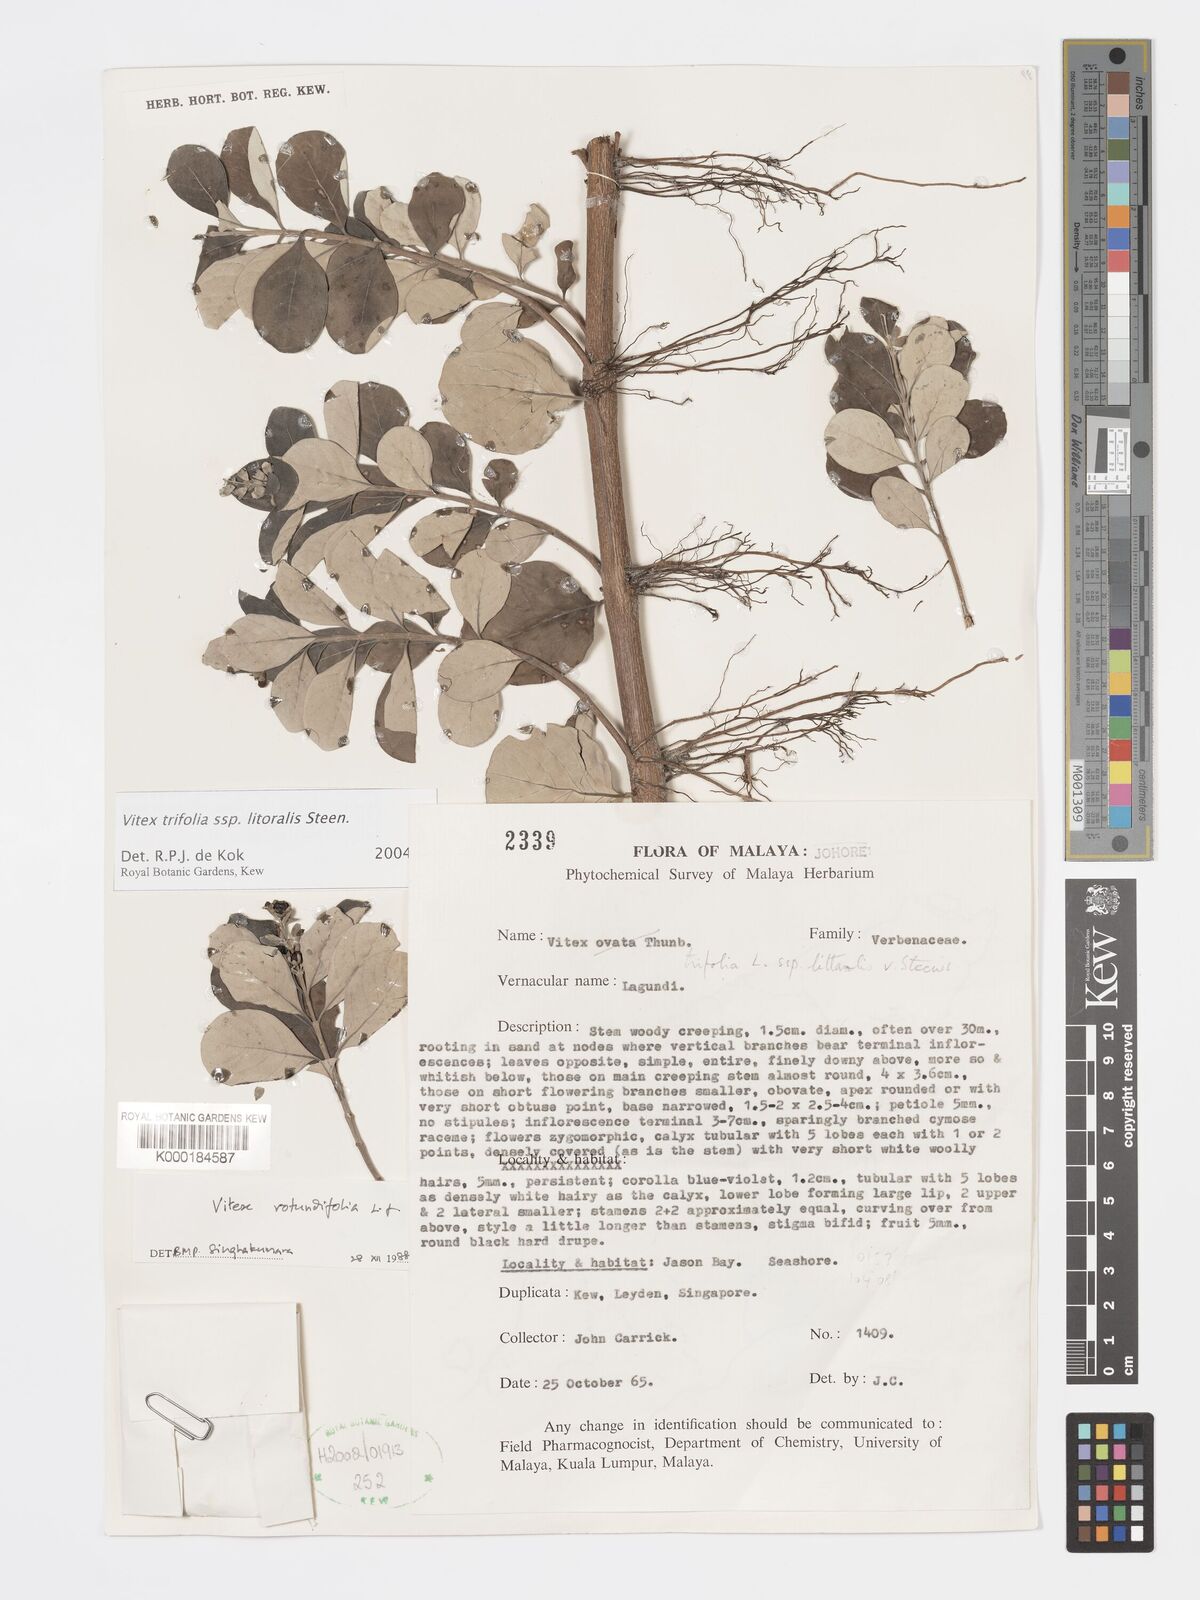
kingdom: Plantae
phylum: Tracheophyta
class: Magnoliopsida
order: Lamiales
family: Lamiaceae
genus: Vitex
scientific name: Vitex rotundifolia
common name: Beach vitex
